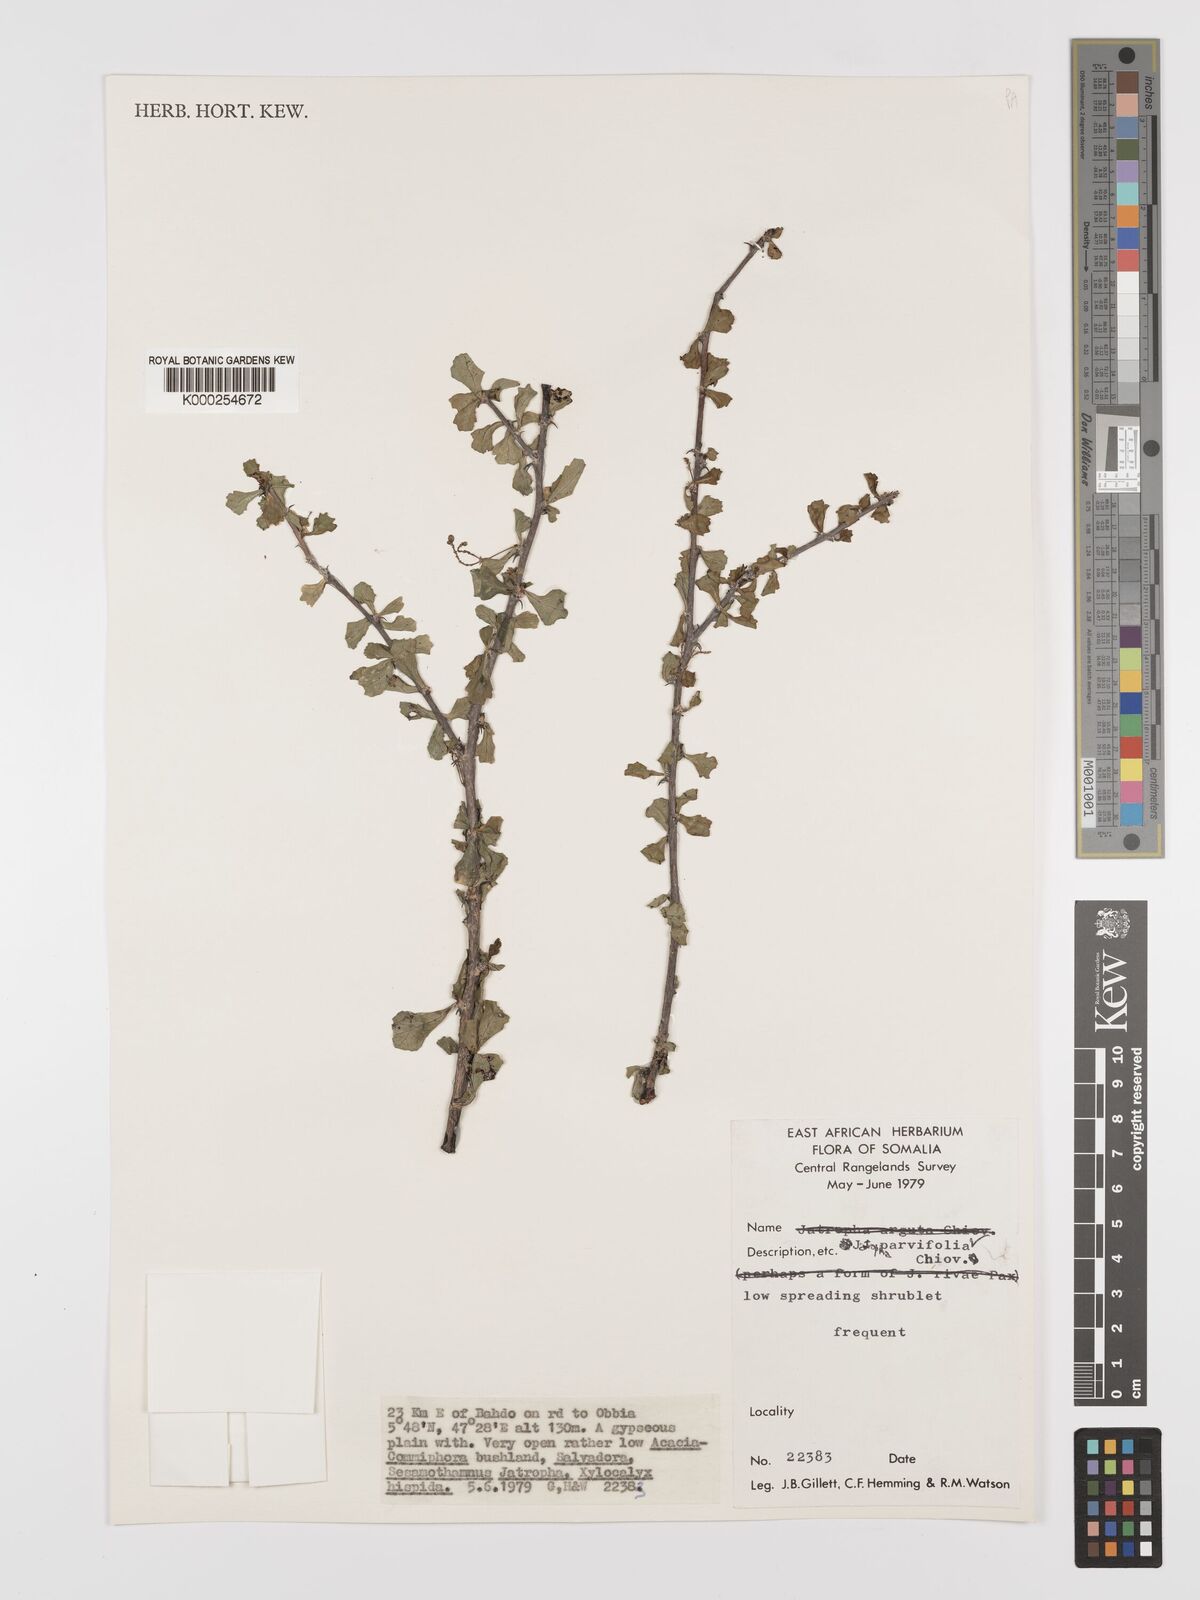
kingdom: Plantae
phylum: Tracheophyta
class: Magnoliopsida
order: Malpighiales
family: Euphorbiaceae
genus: Jatropha
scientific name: Jatropha rivae
